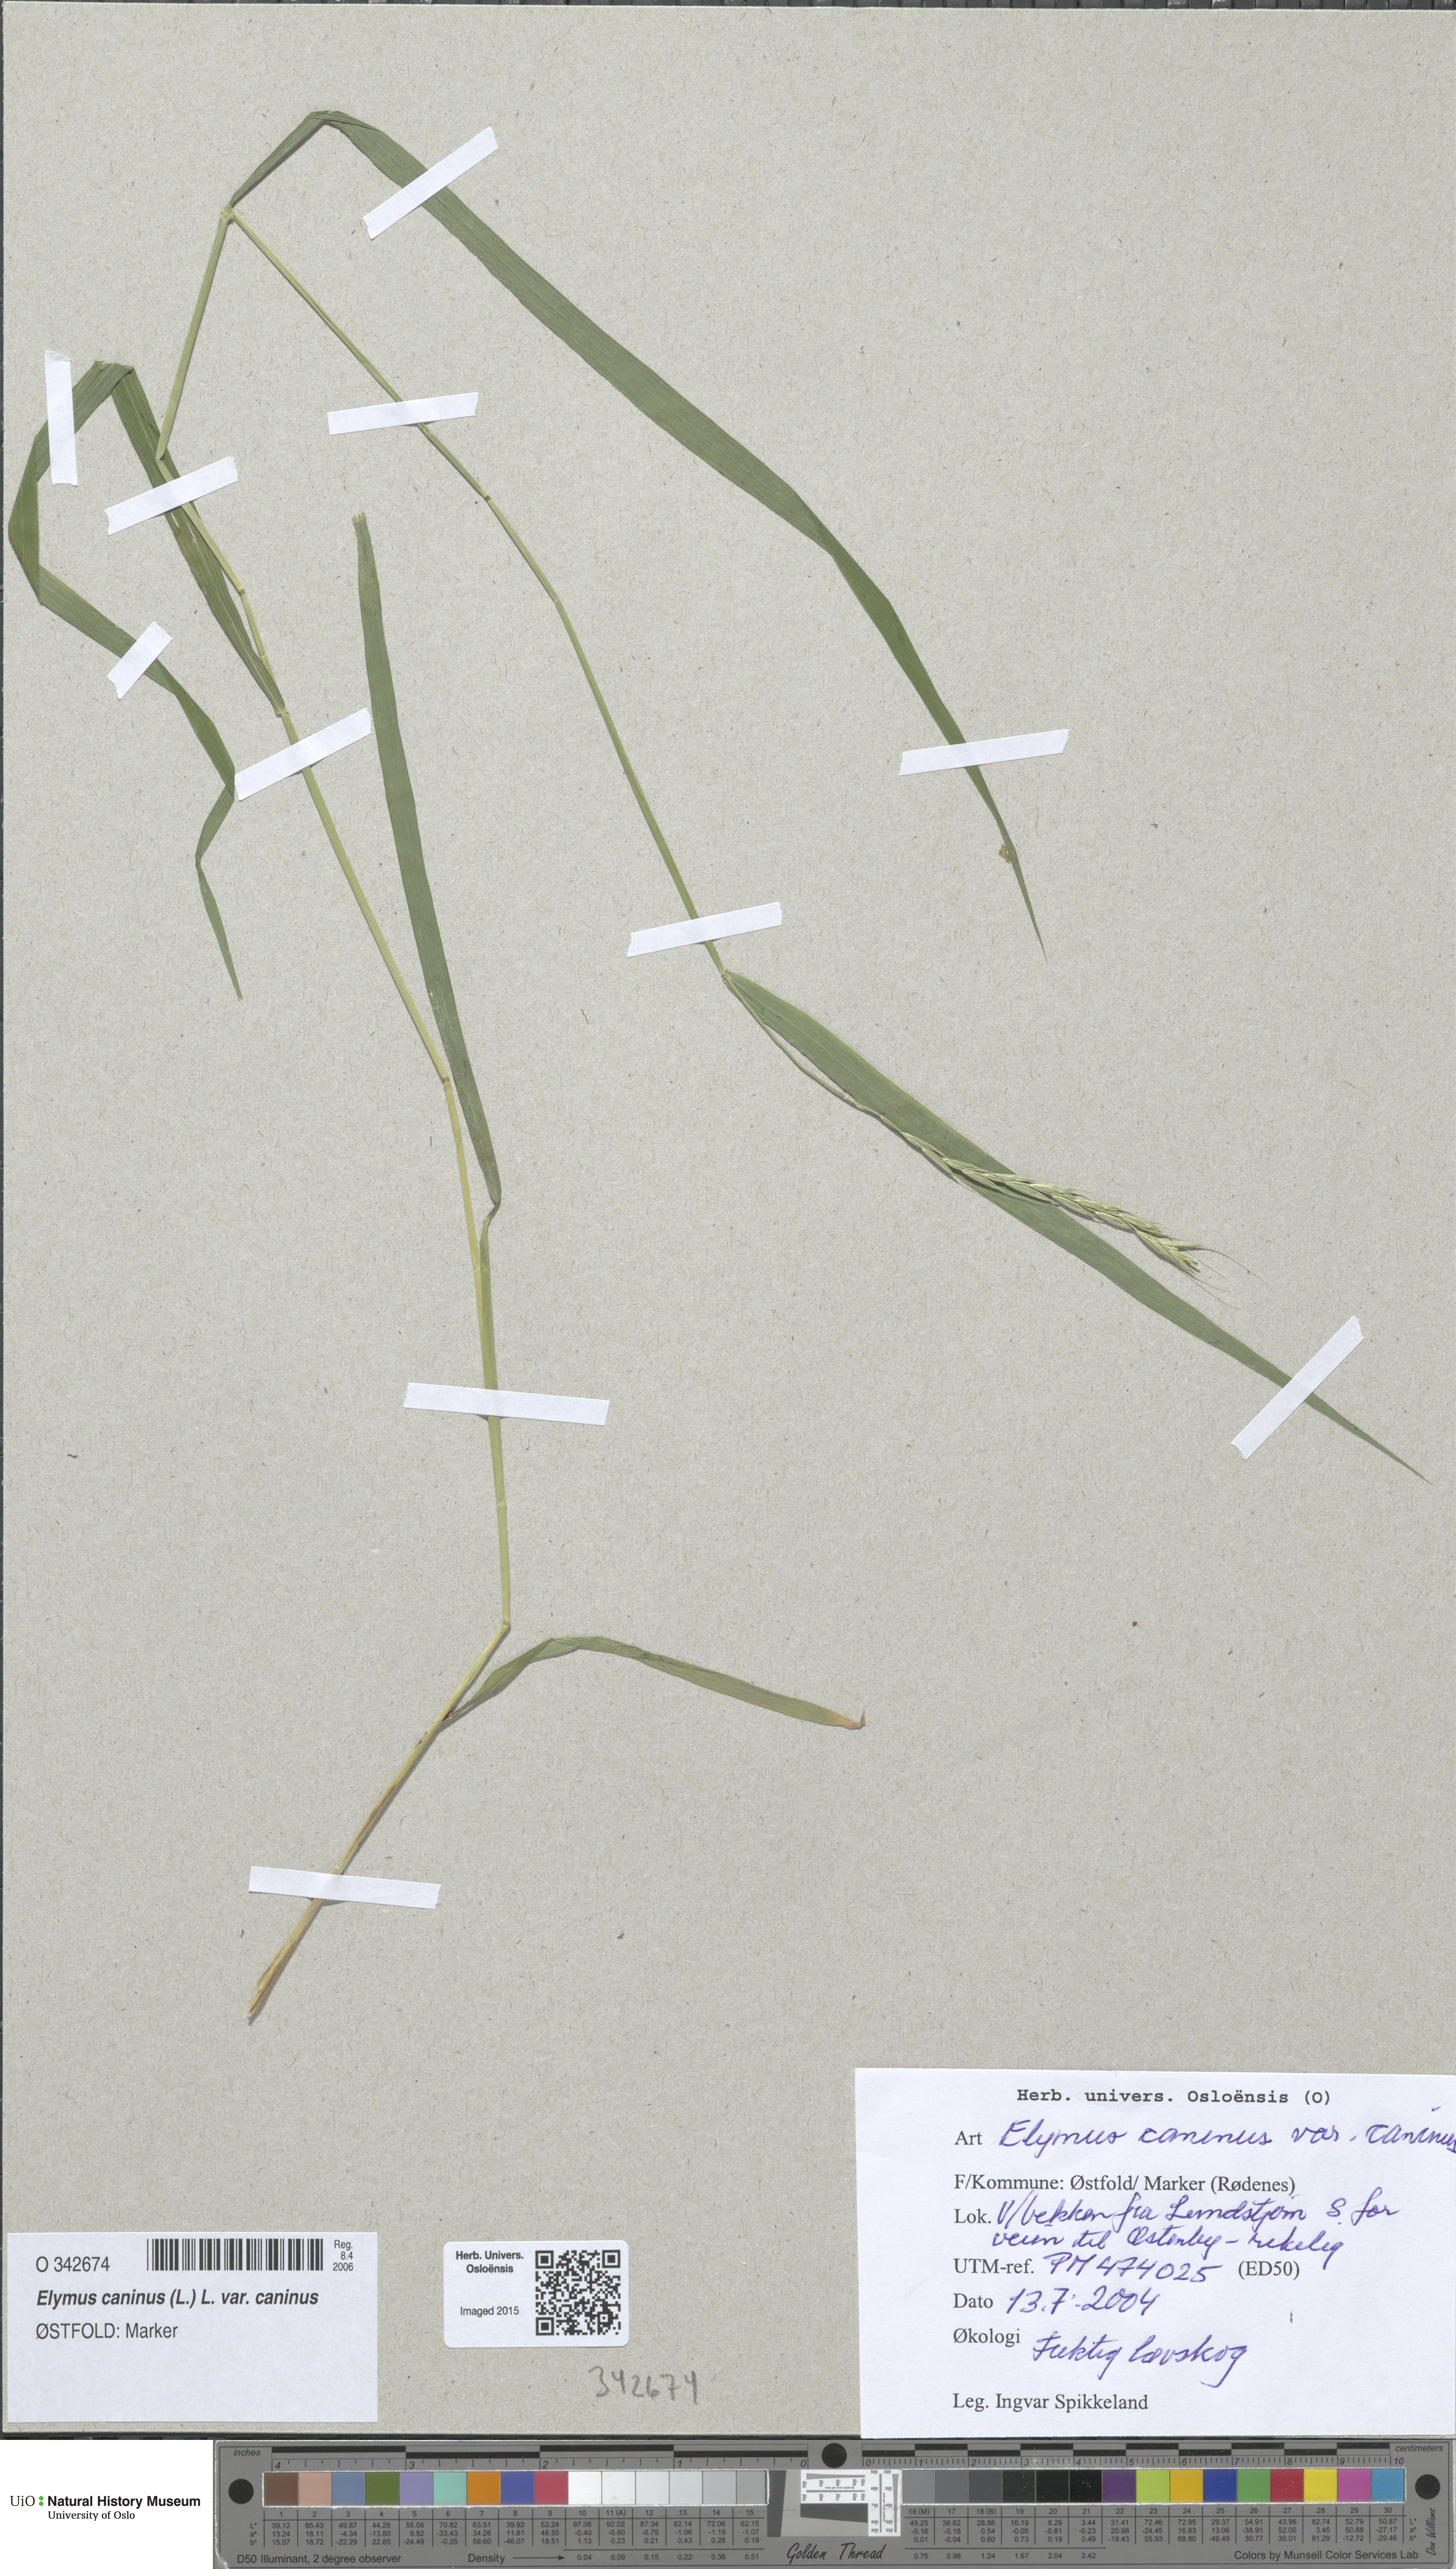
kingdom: Plantae
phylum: Tracheophyta
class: Liliopsida
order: Poales
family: Poaceae
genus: Elymus
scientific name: Elymus caninus
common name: Bearded couch
